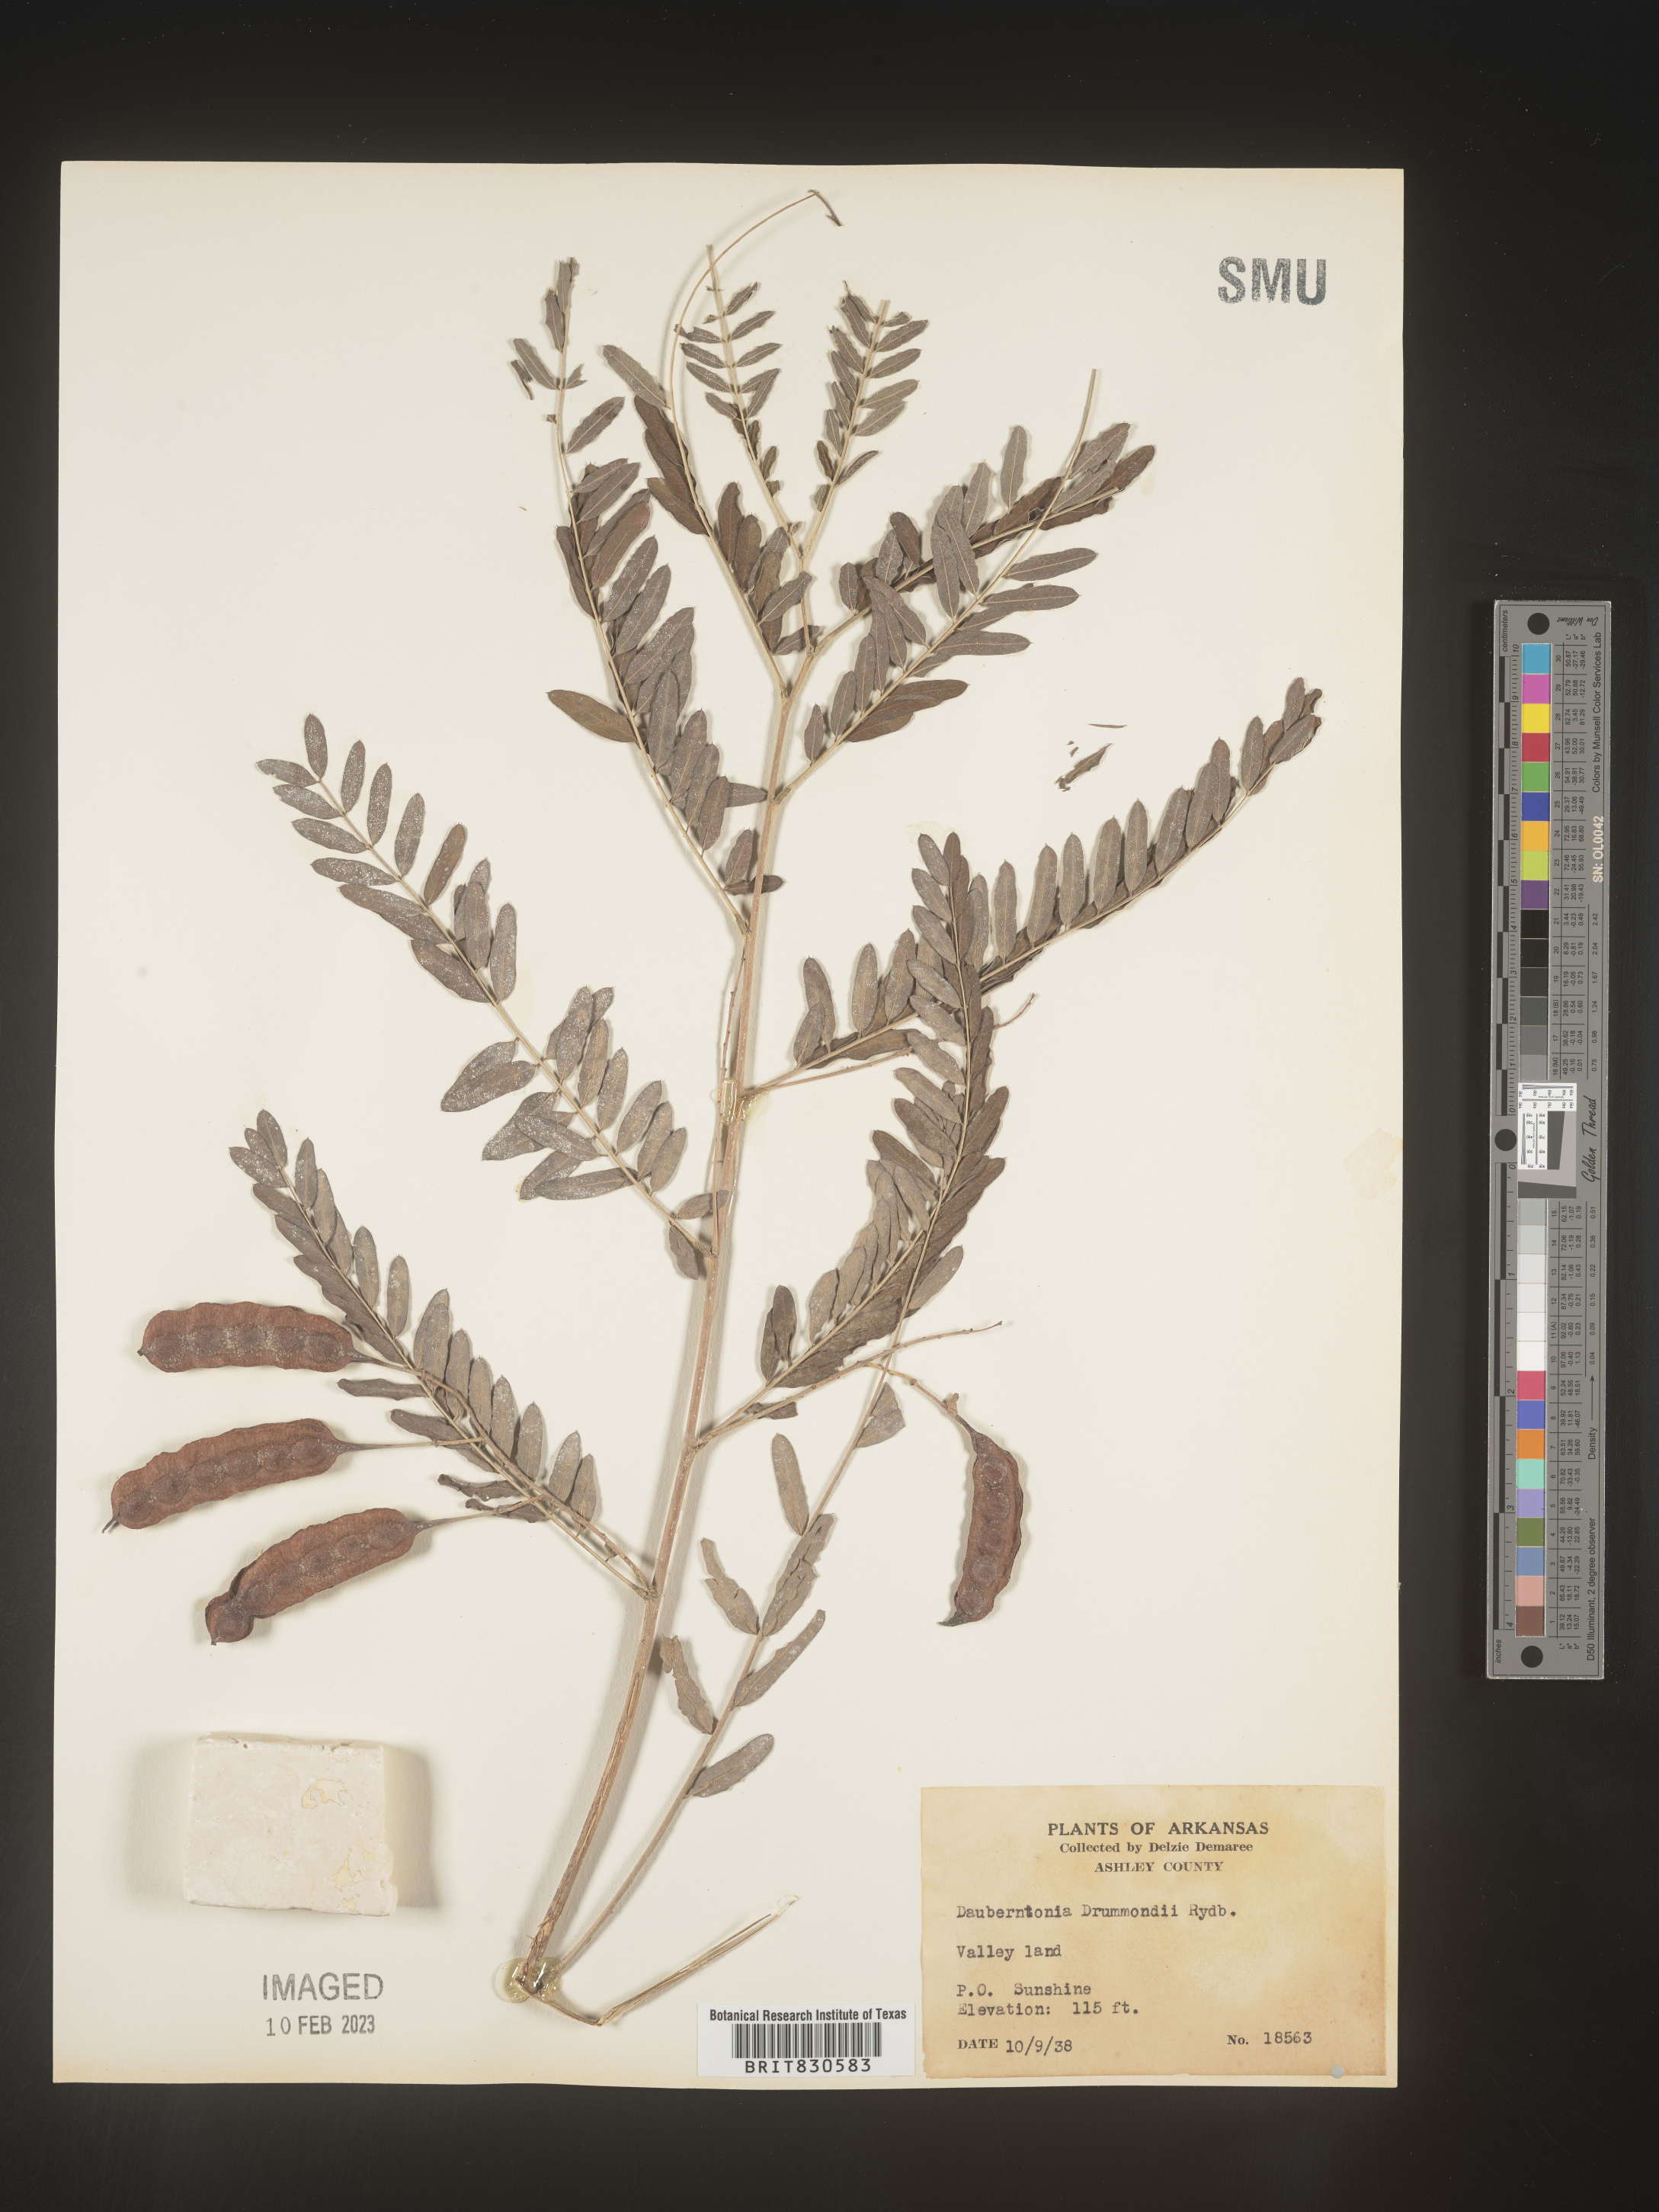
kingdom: Plantae
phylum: Tracheophyta
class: Magnoliopsida
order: Fabales
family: Fabaceae
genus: Sesbania
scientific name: Sesbania drummondii
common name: Poison-bean
